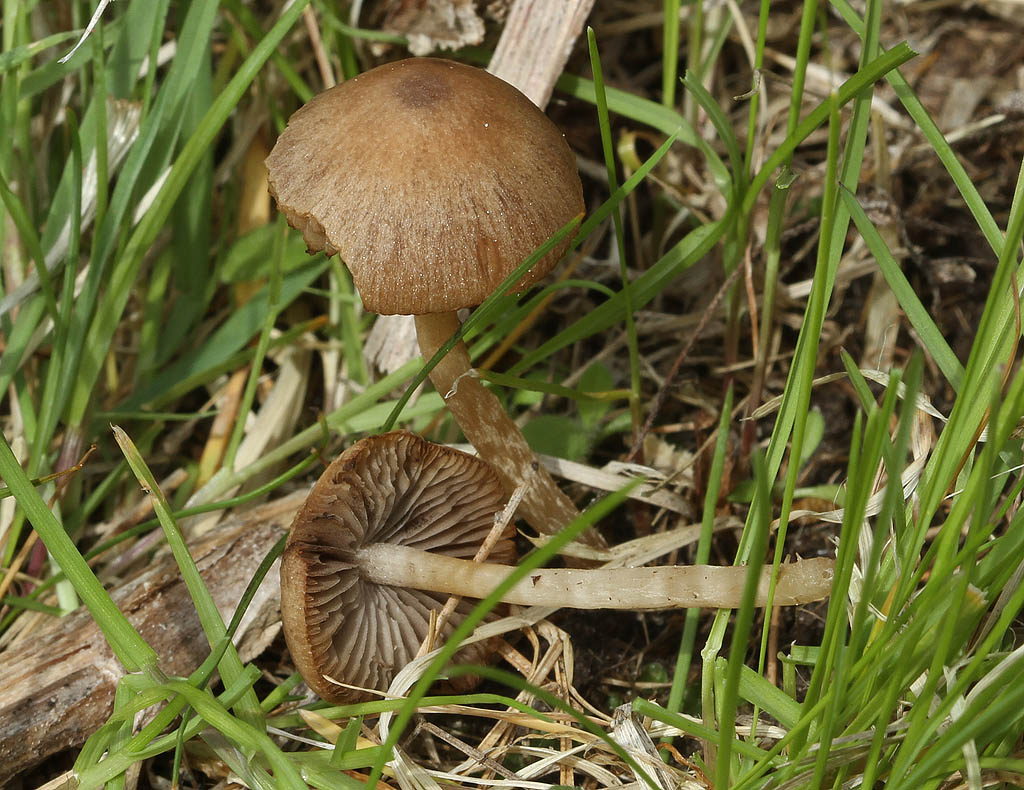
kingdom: Fungi
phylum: Basidiomycota
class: Agaricomycetes
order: Agaricales
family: Psathyrellaceae
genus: Psathyrella
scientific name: Psathyrella panaeoloides
